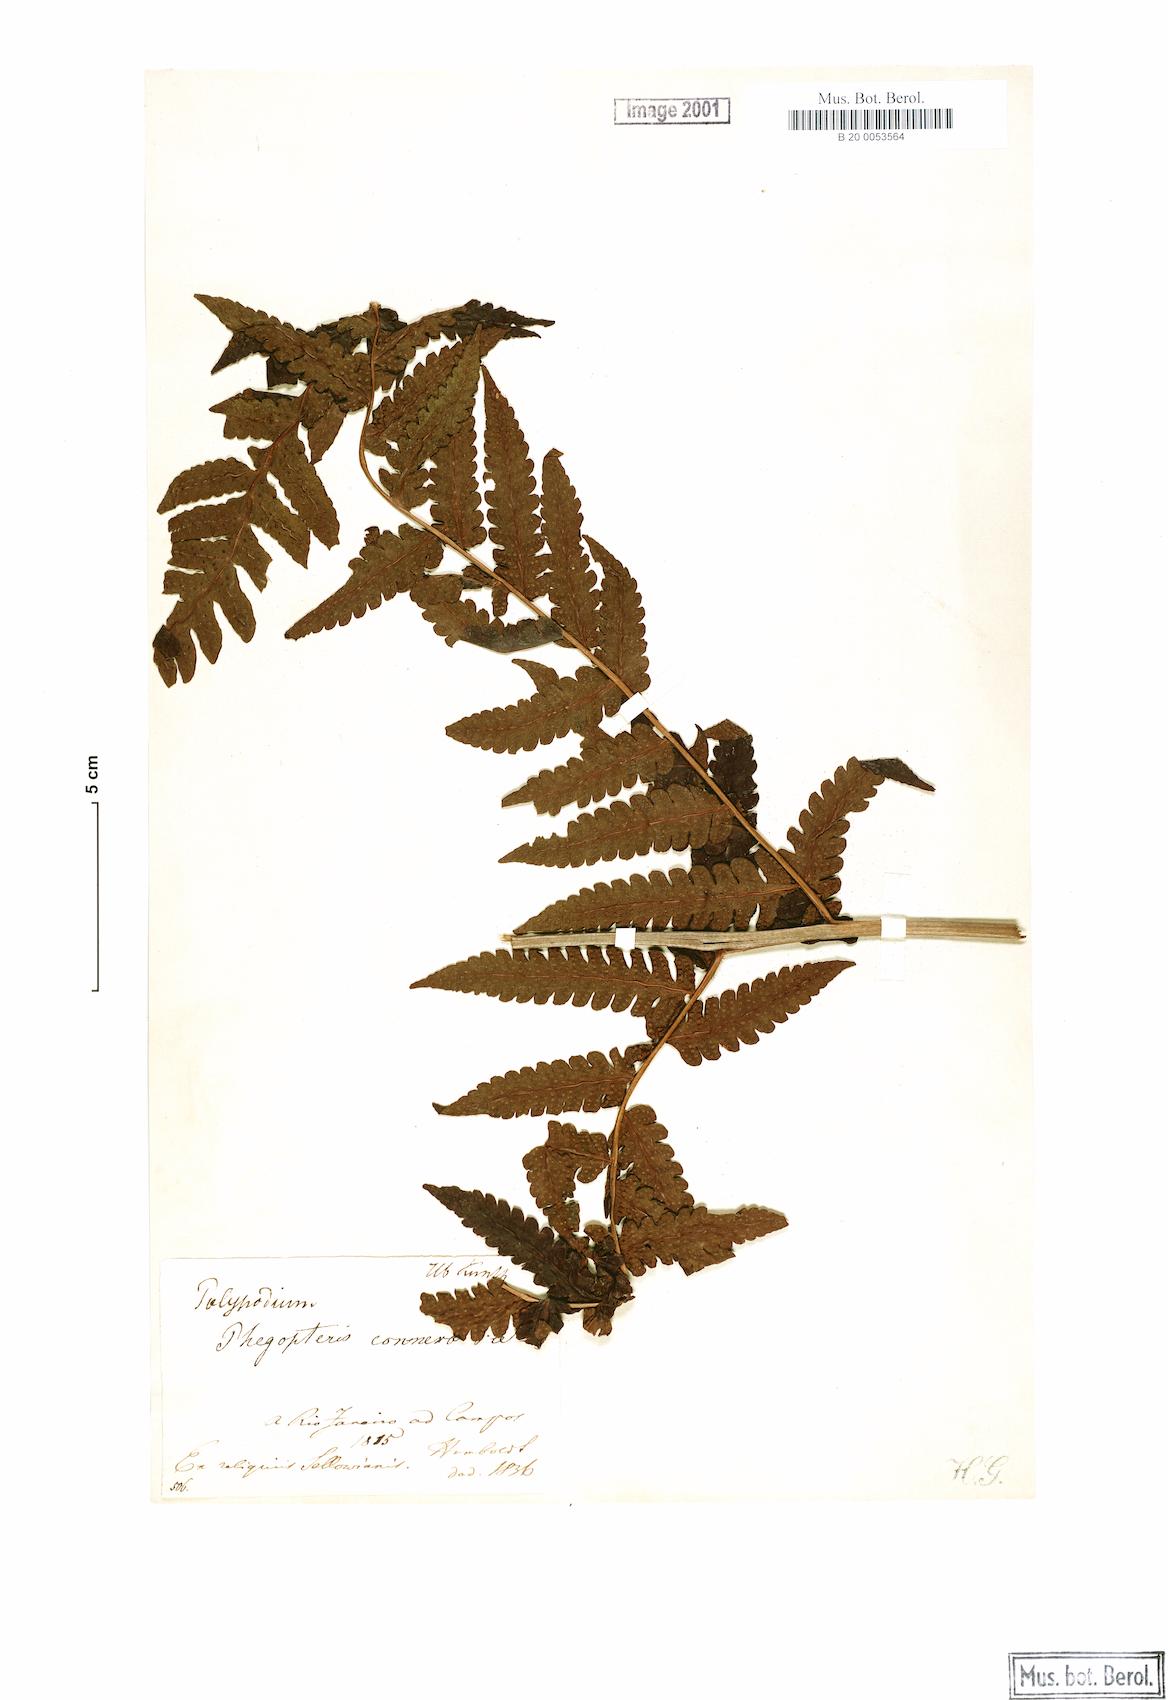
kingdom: Plantae
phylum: Tracheophyta
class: Polypodiopsida
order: Polypodiales
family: Dryopteridaceae
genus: Megalastrum
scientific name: Megalastrum connexum
